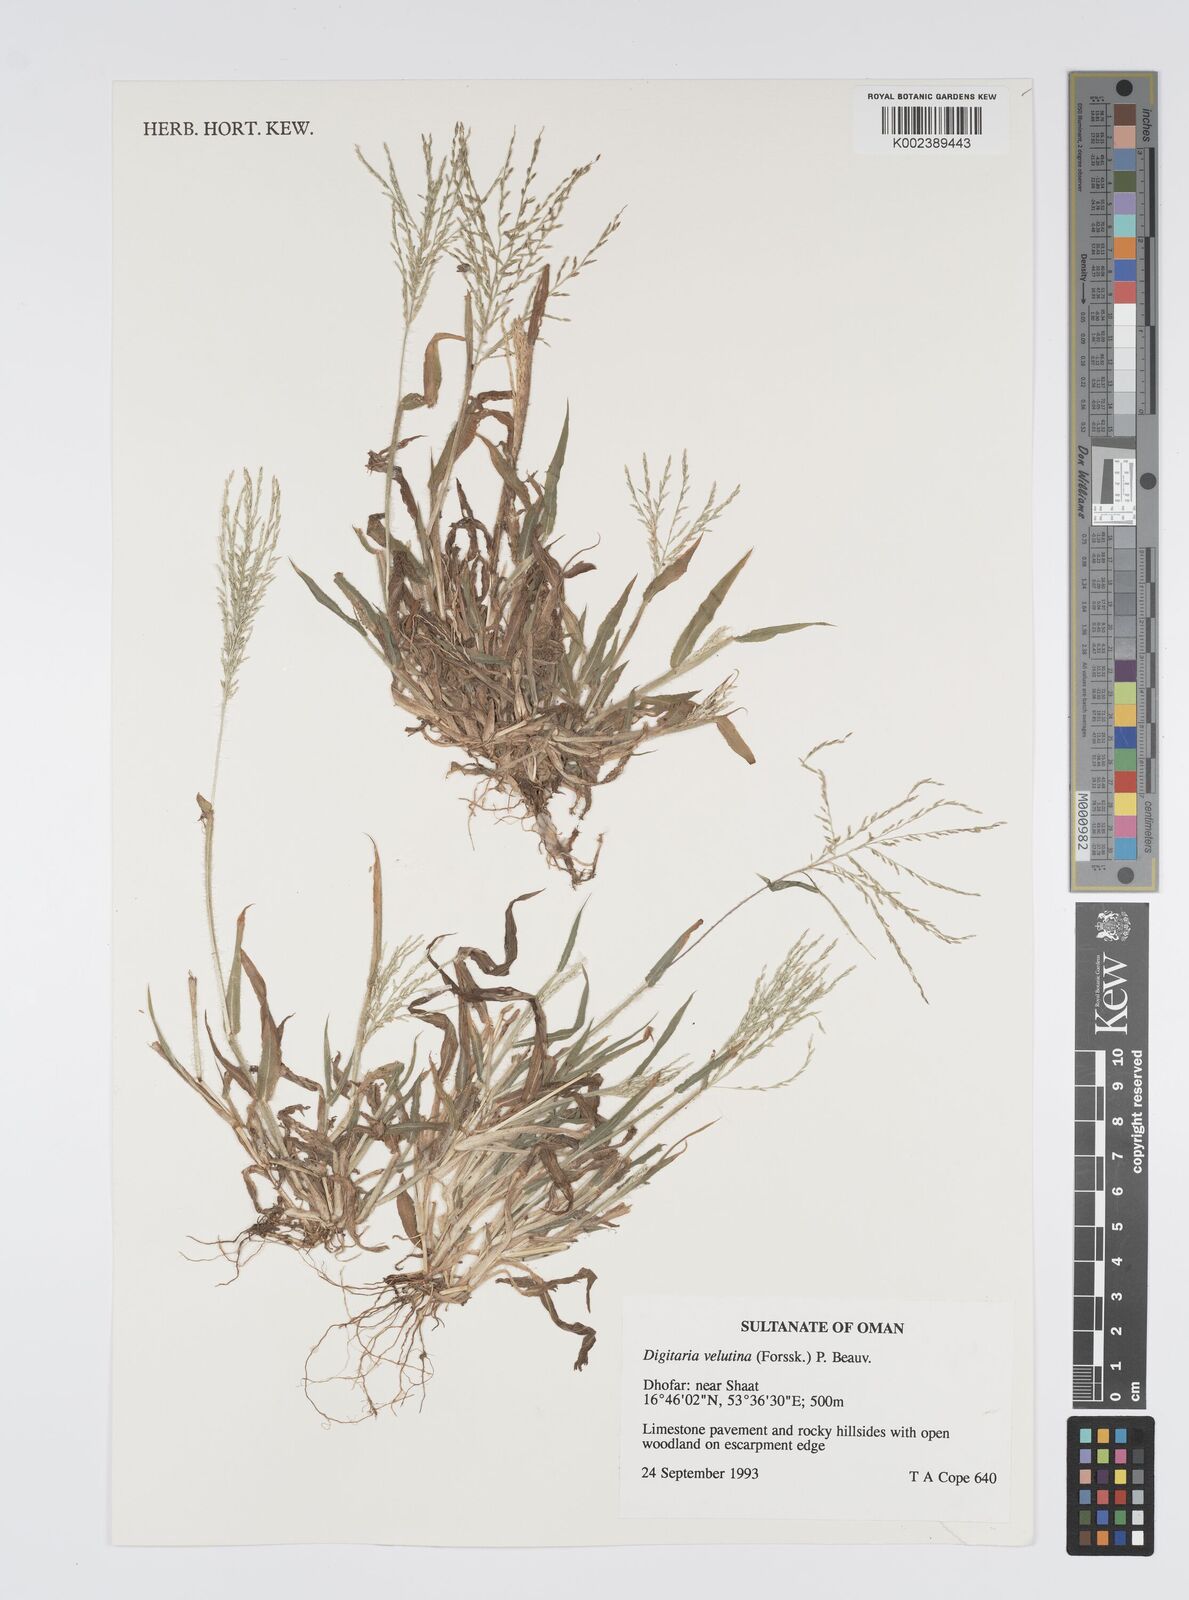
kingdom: Plantae
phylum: Tracheophyta
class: Liliopsida
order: Poales
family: Poaceae
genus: Digitaria
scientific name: Digitaria velutina
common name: Long-plume finger grass
